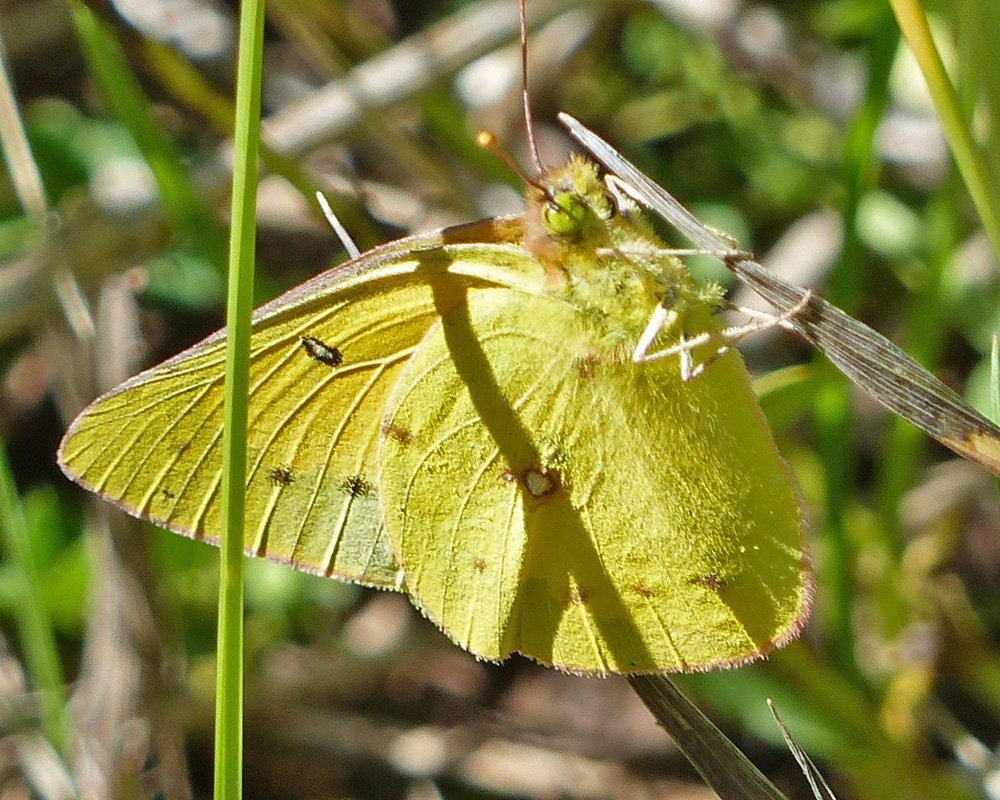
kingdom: Animalia
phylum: Arthropoda
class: Insecta
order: Lepidoptera
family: Pieridae
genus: Colias
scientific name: Colias eurytheme
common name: Orange Sulphur
